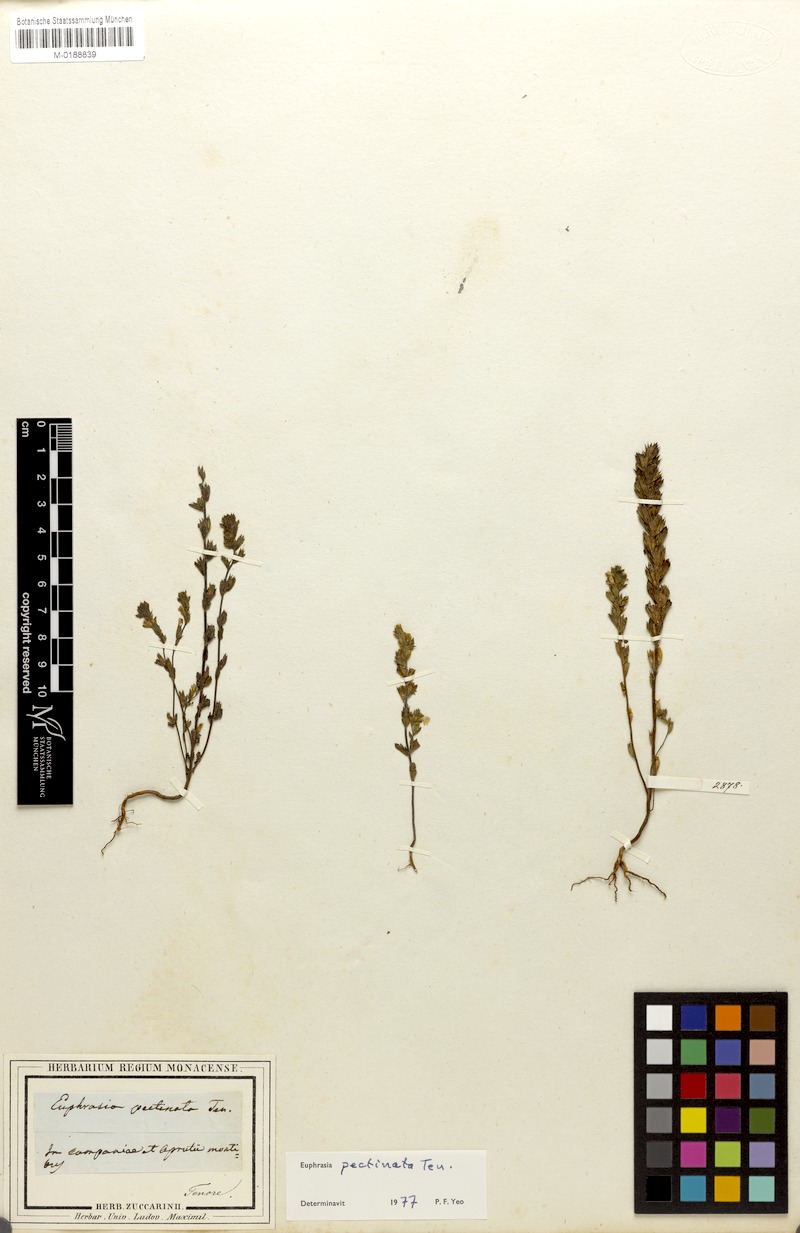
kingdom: Plantae
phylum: Tracheophyta
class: Magnoliopsida
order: Lamiales
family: Orobanchaceae
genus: Euphrasia
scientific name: Euphrasia pectinata
